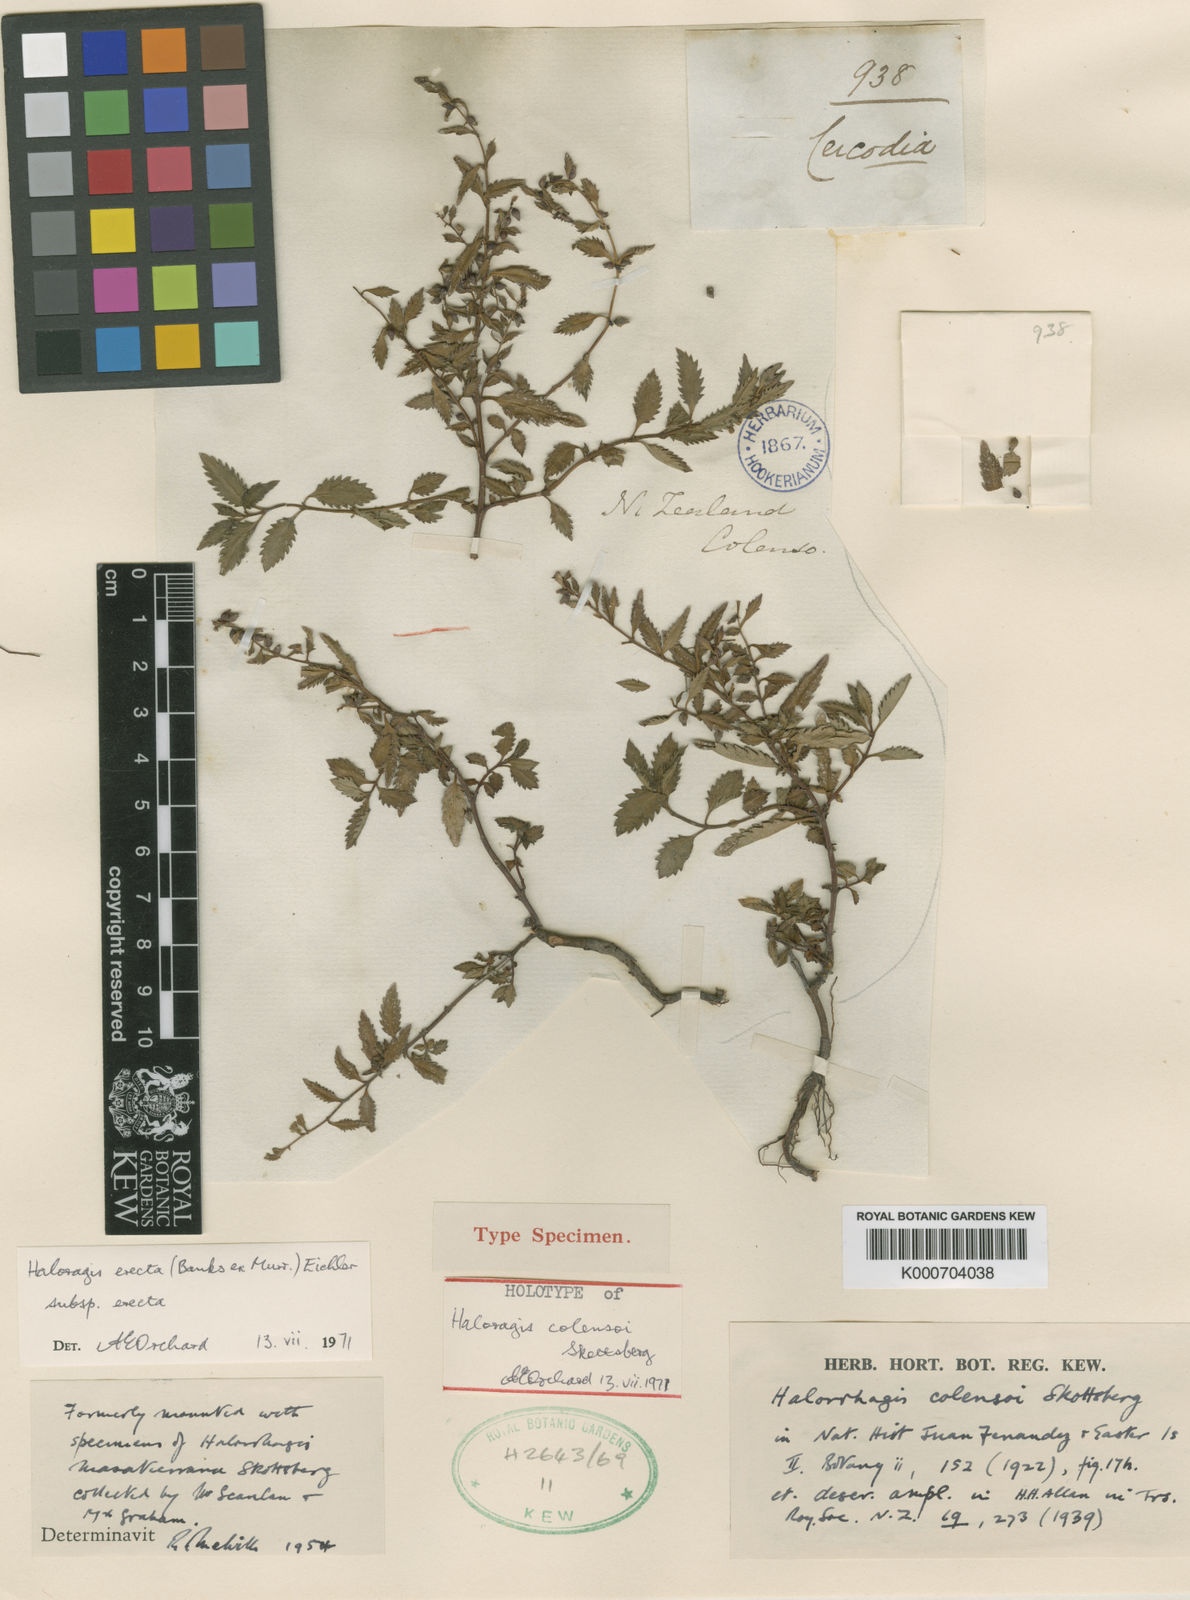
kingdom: Plantae
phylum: Tracheophyta
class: Magnoliopsida
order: Saxifragales
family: Haloragaceae
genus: Haloragis
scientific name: Haloragis
